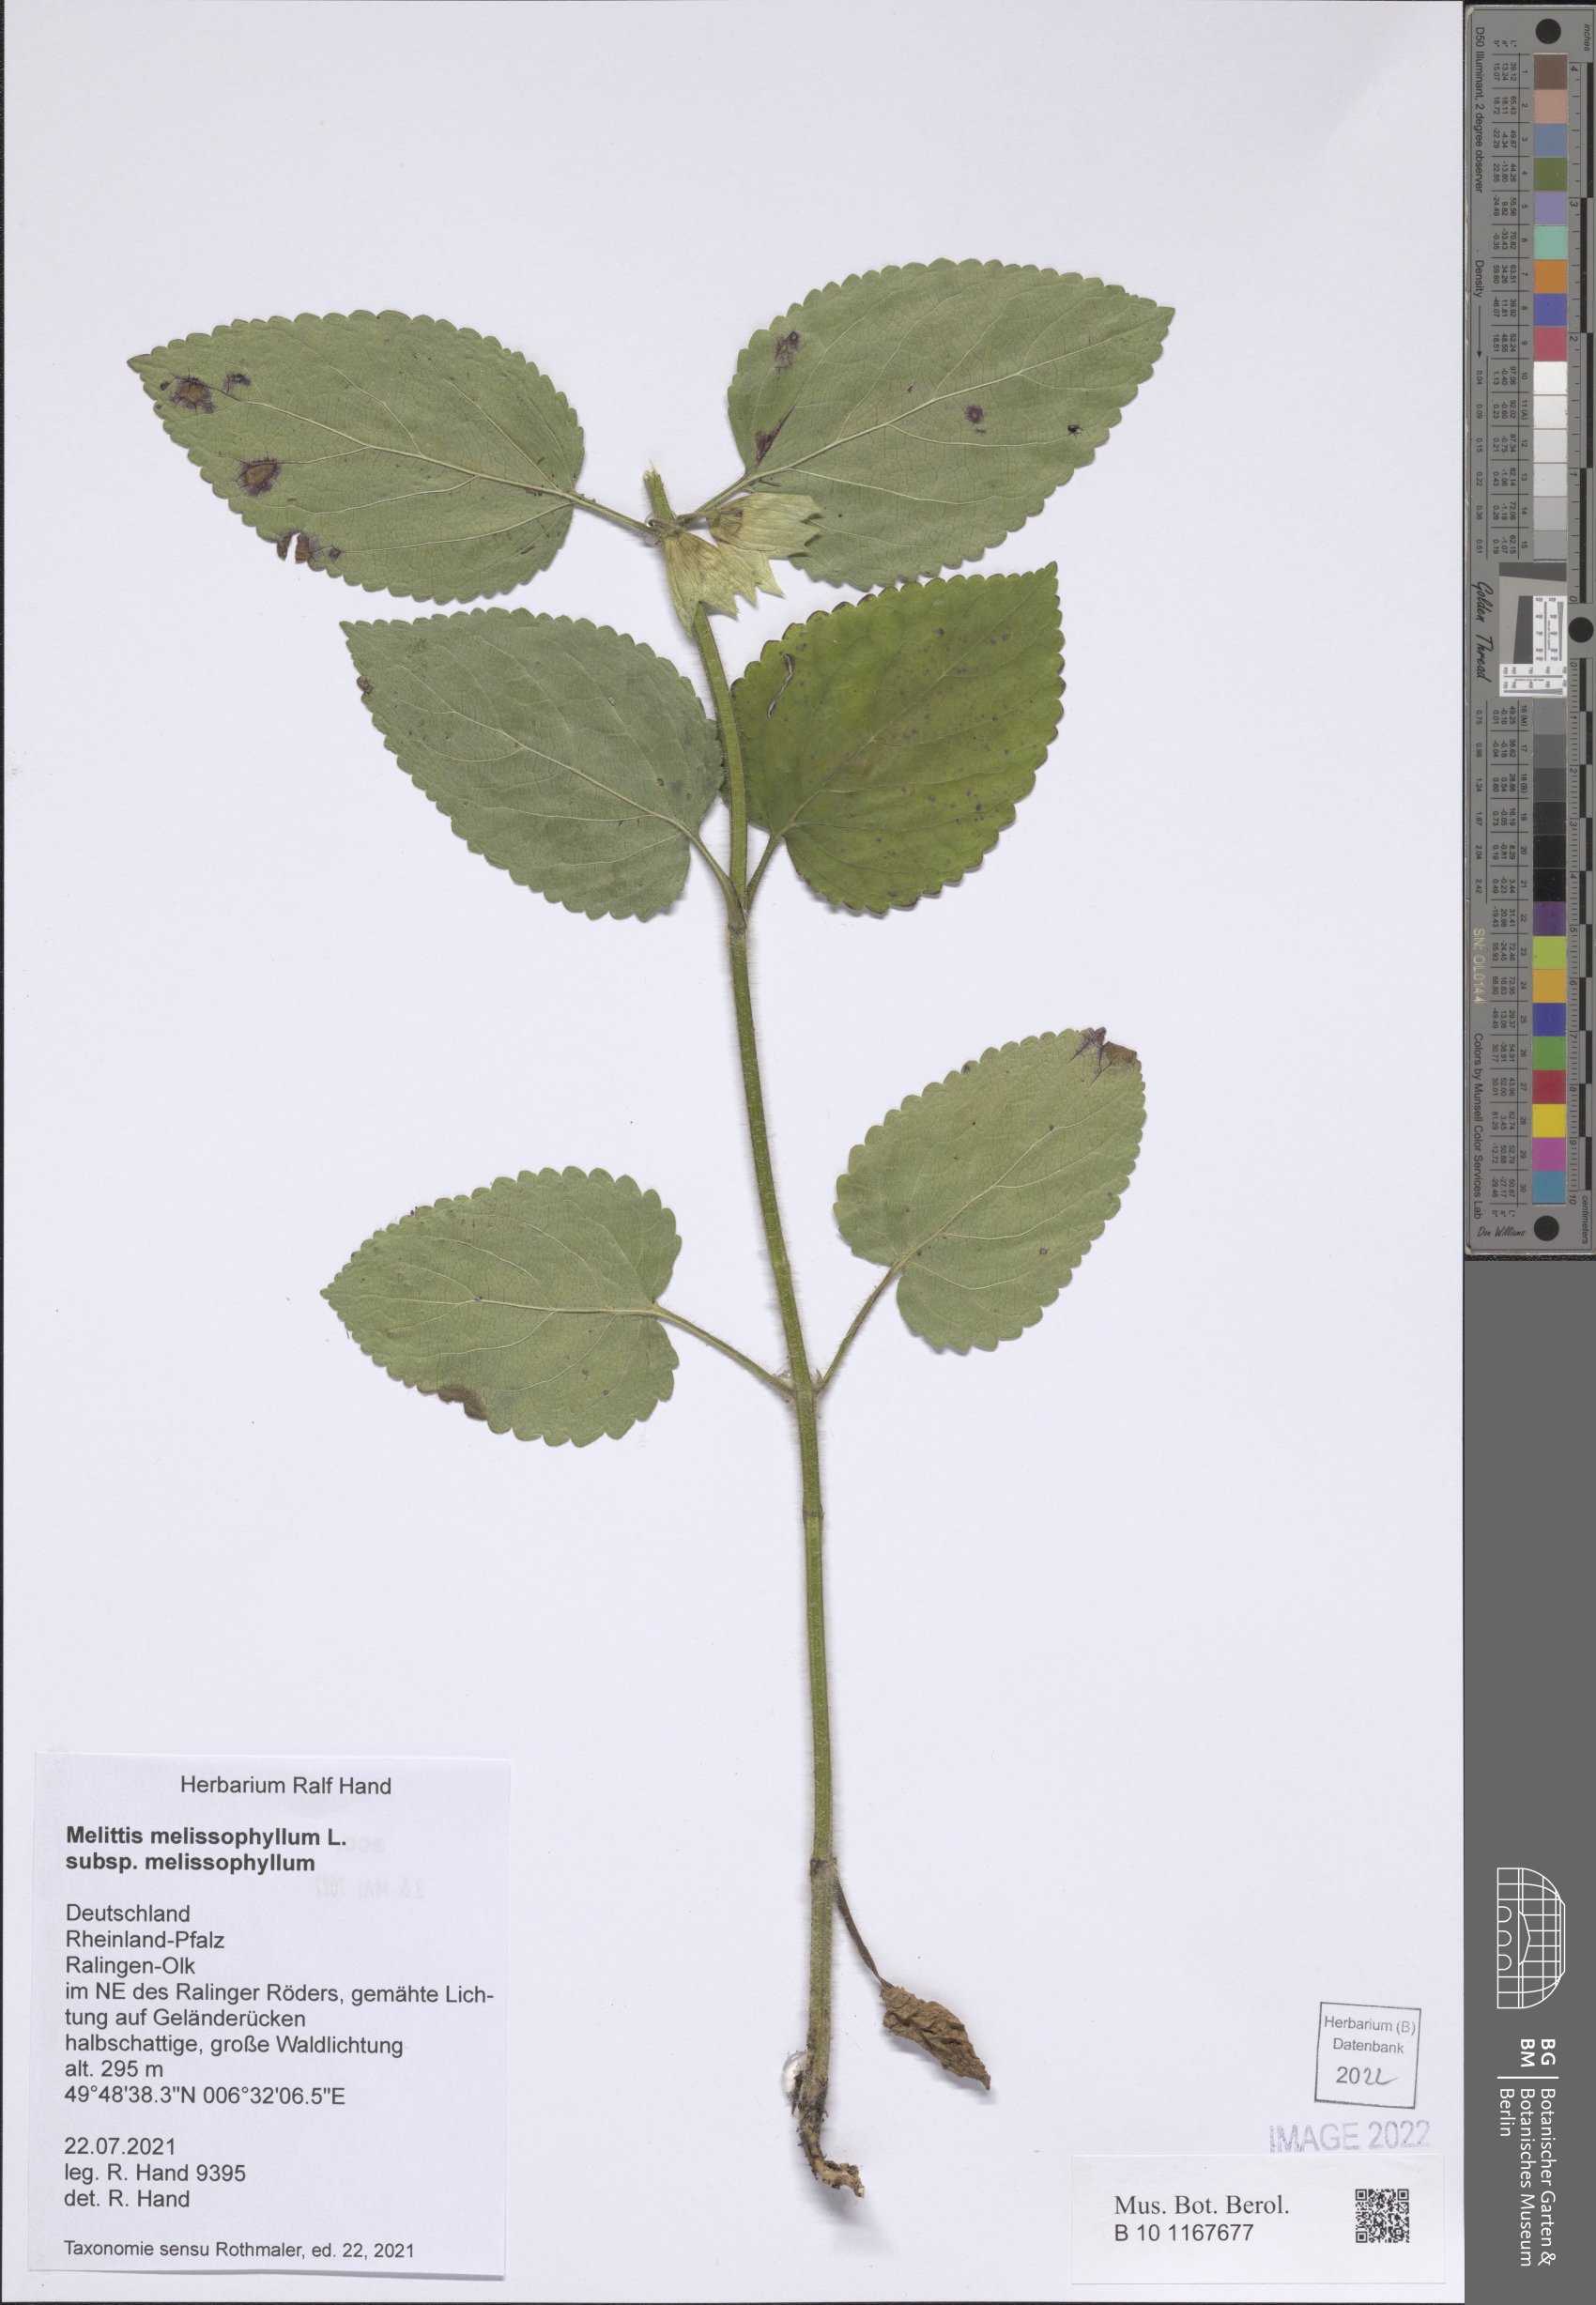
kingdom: Plantae
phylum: Tracheophyta
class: Magnoliopsida
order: Lamiales
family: Lamiaceae
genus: Melittis
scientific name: Melittis melissophyllum
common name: Bastard balm
